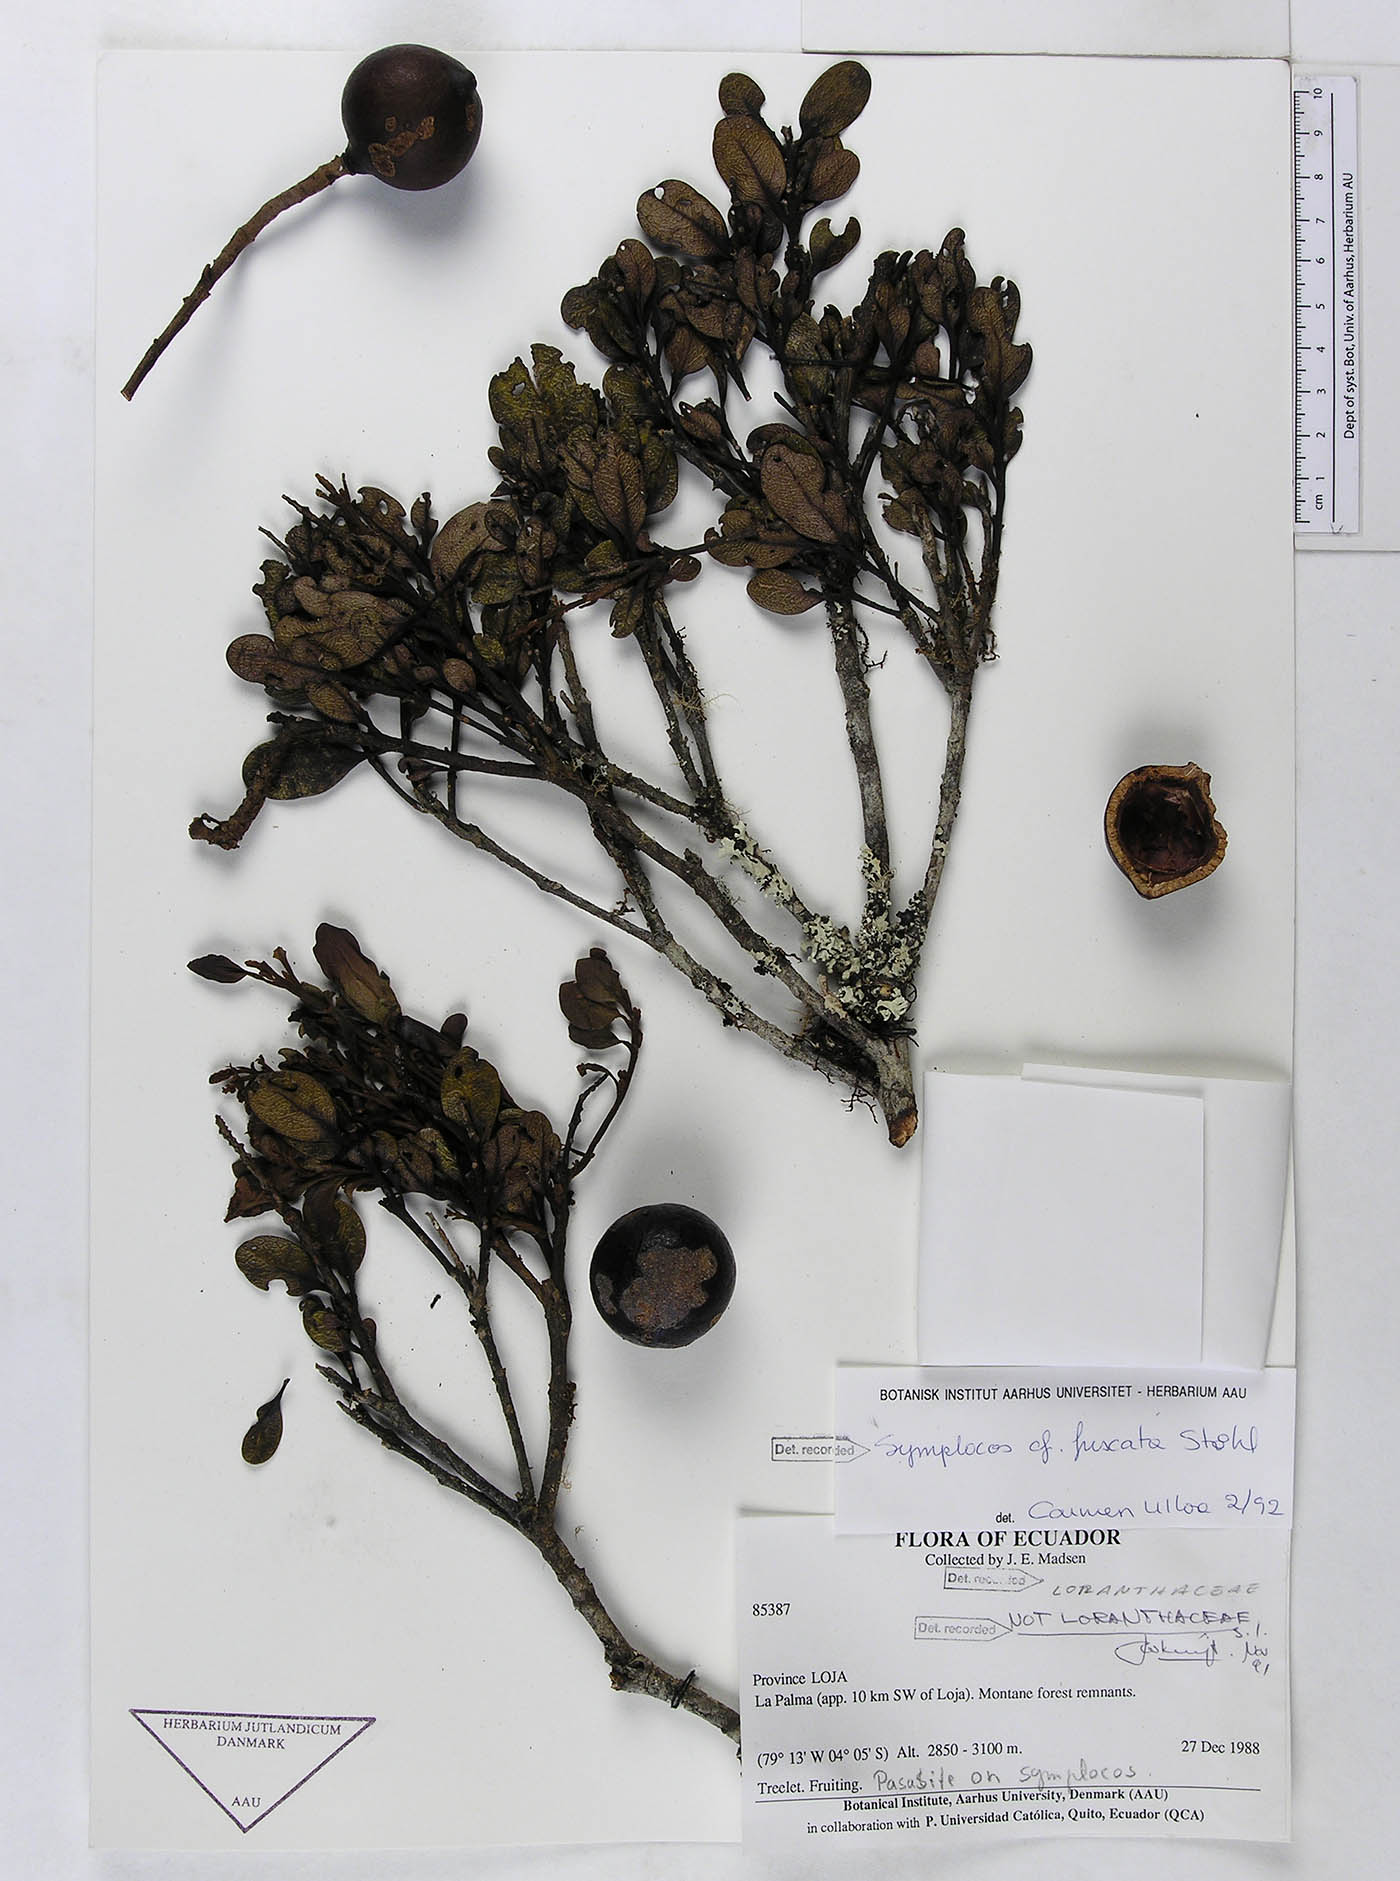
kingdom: Plantae
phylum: Tracheophyta
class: Magnoliopsida
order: Proteales
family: Proteaceae
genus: Panopsis
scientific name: Panopsis roldosii
